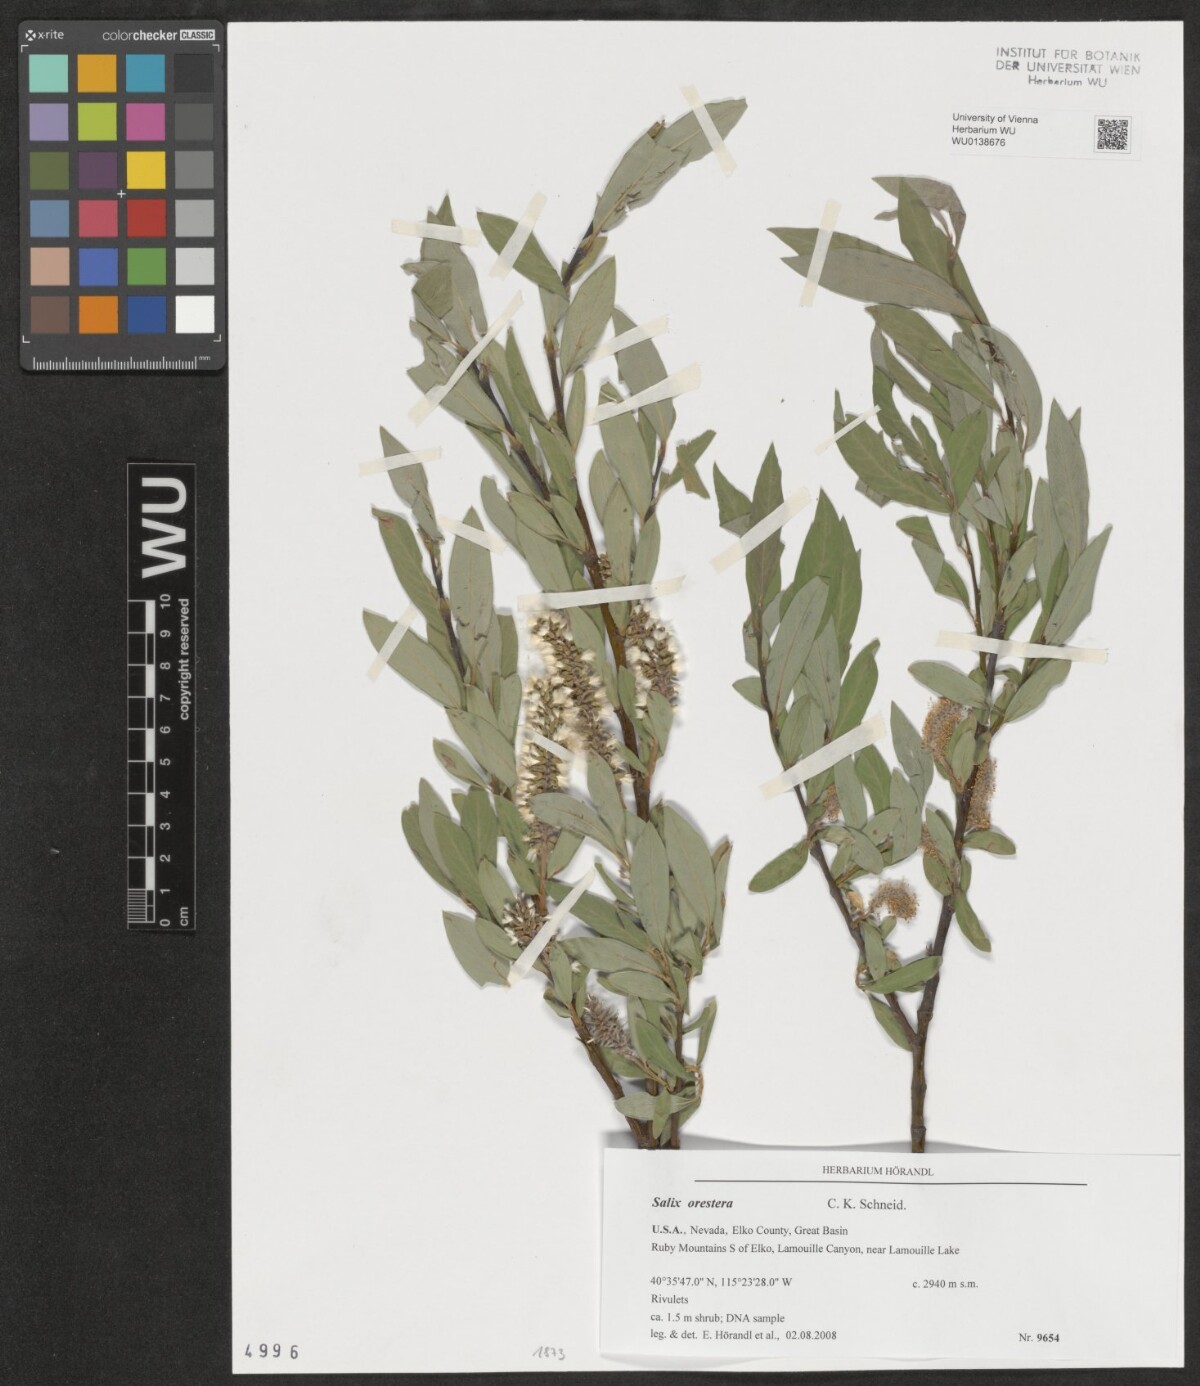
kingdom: Plantae
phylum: Tracheophyta
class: Magnoliopsida
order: Malpighiales
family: Salicaceae
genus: Salix
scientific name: Salix orestera
